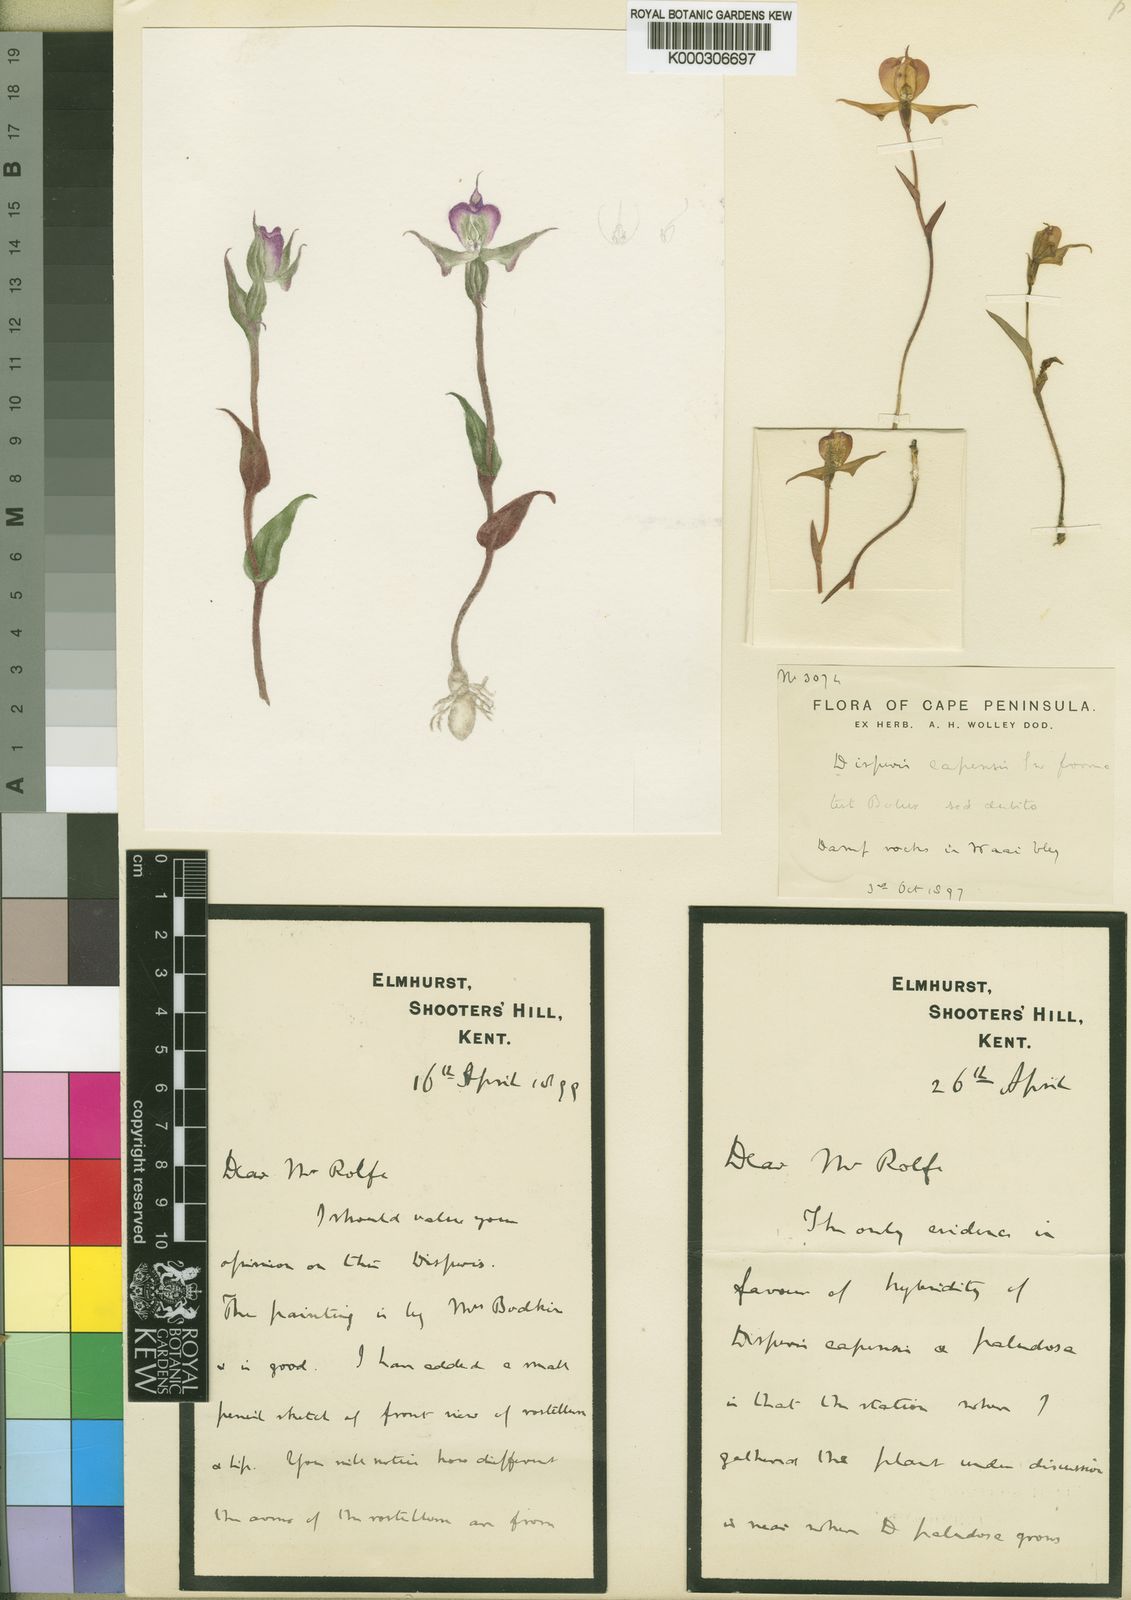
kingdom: Plantae
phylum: Tracheophyta
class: Liliopsida
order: Asparagales
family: Orchidaceae
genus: Disperis
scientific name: Disperis capensis
